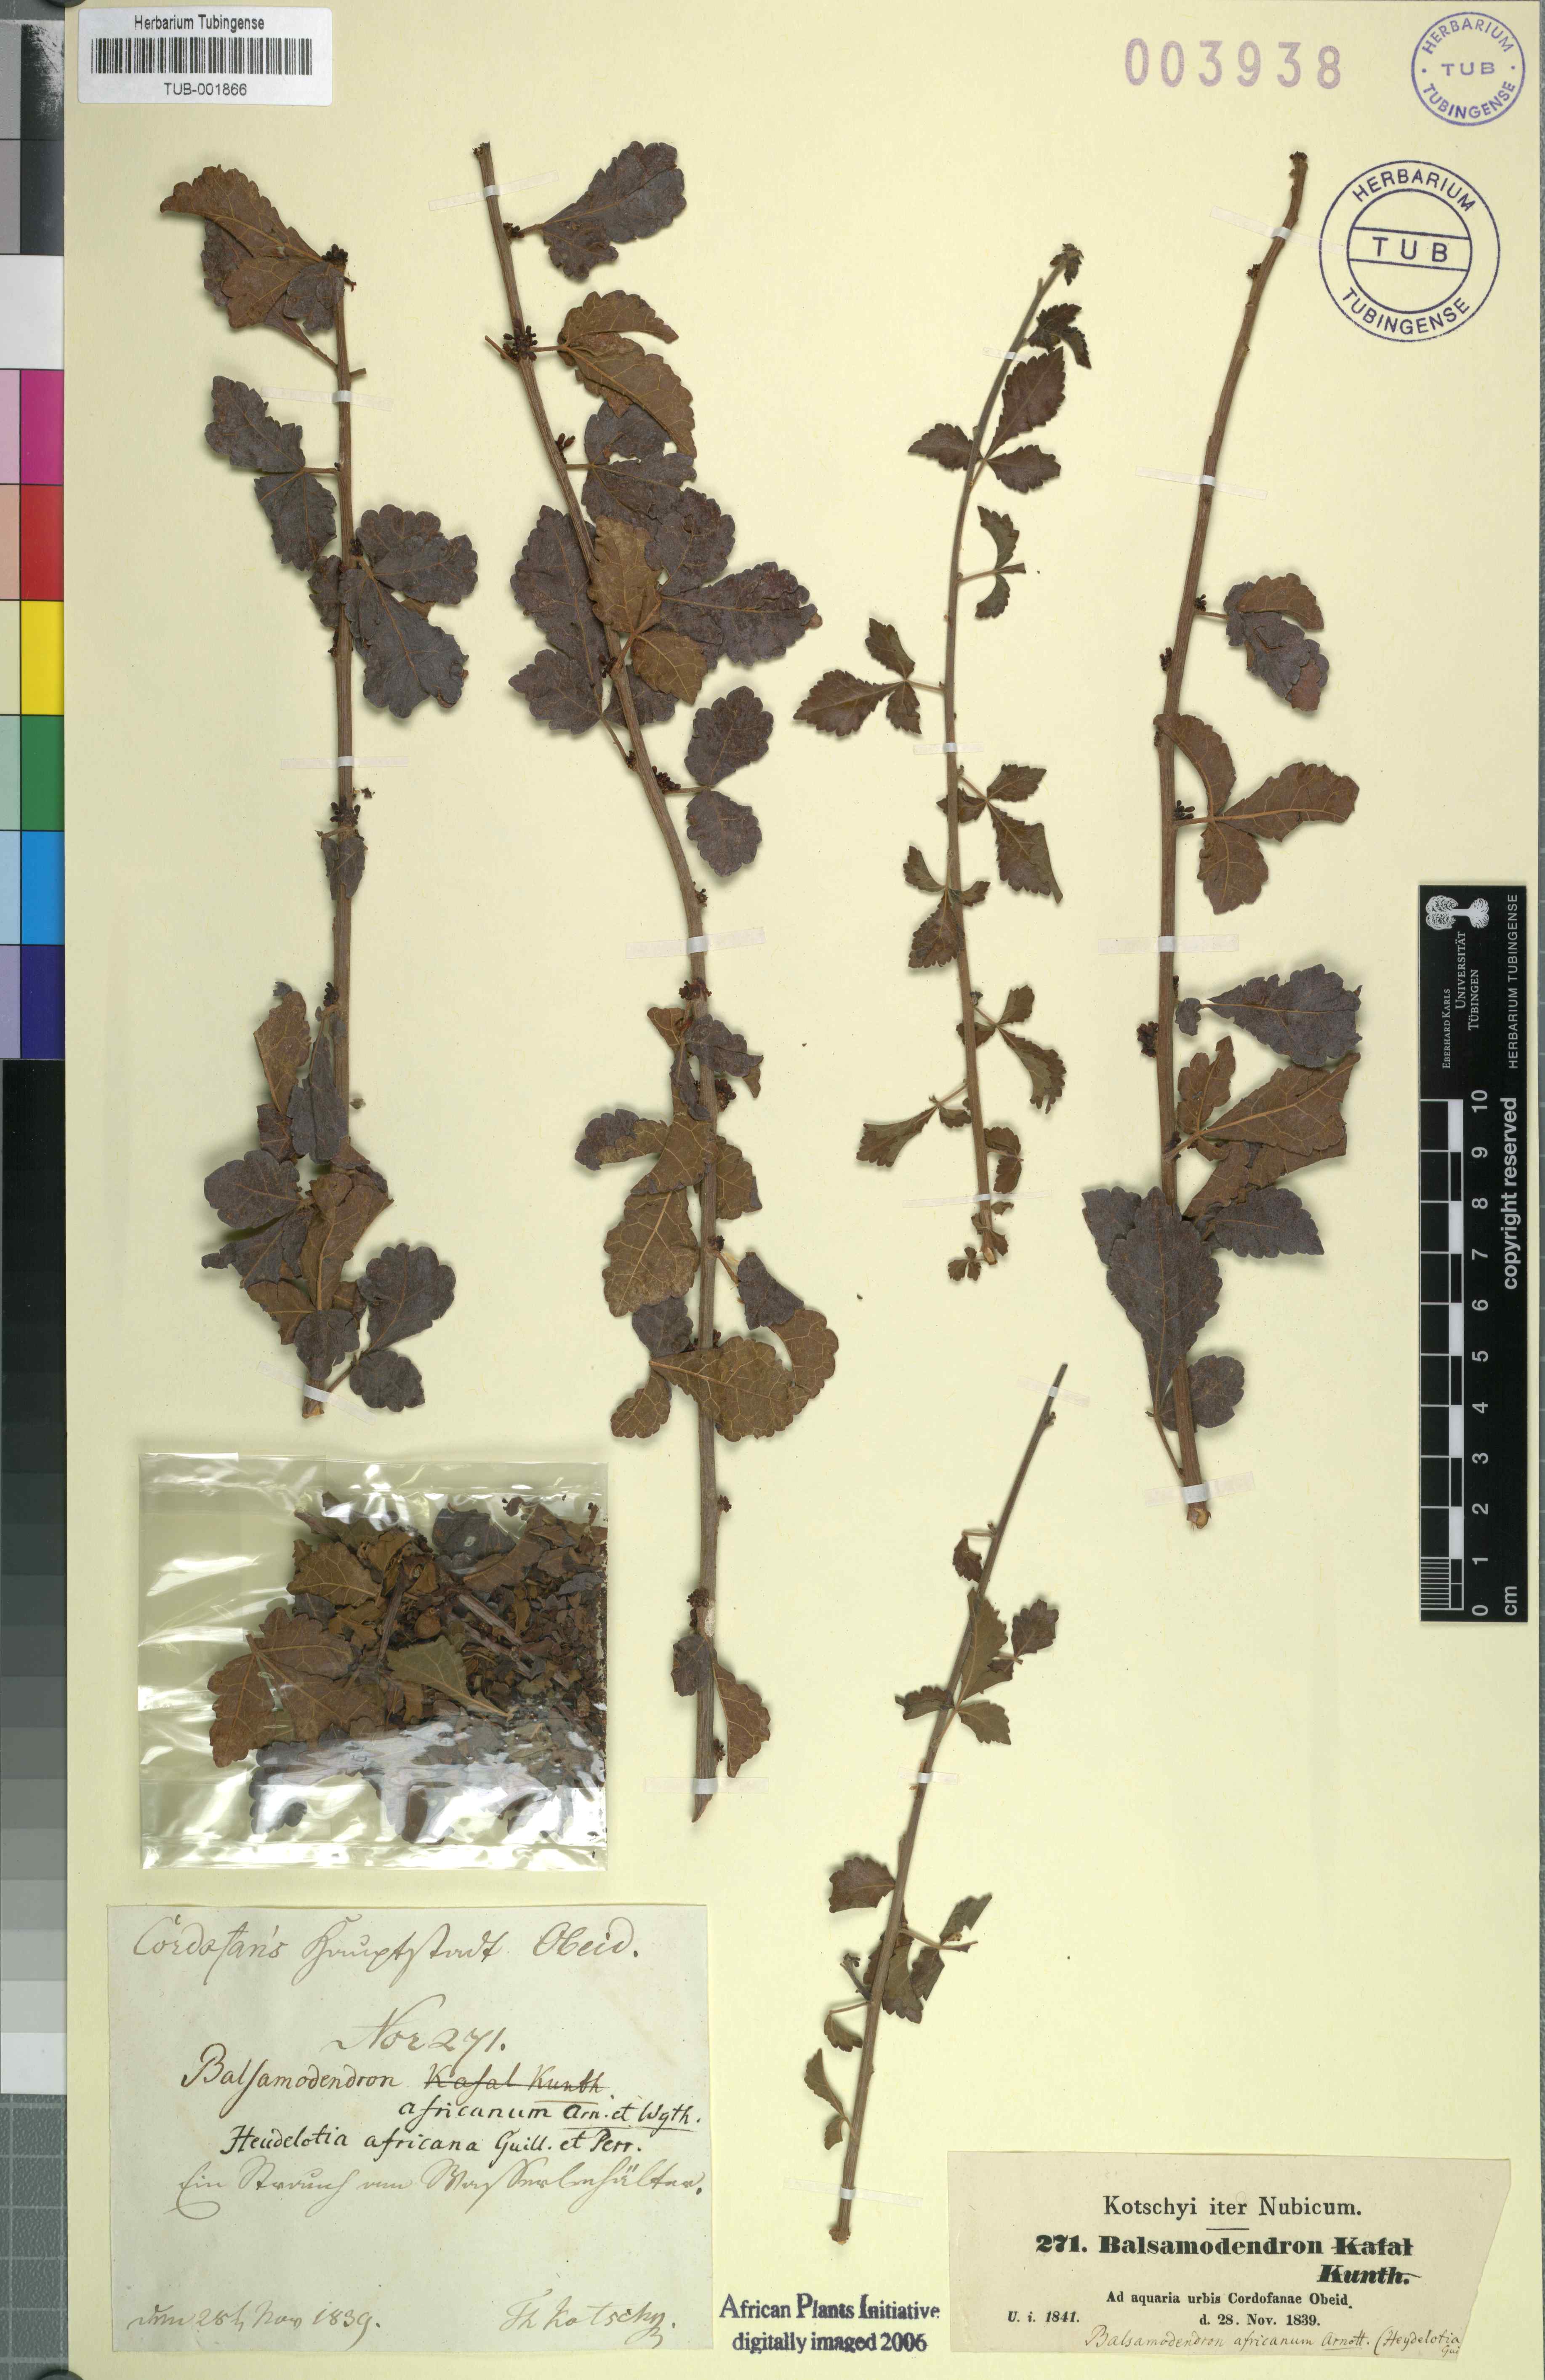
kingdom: Plantae
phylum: Tracheophyta
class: Magnoliopsida
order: Sapindales
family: Burseraceae
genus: Commiphora
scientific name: Commiphora africana
